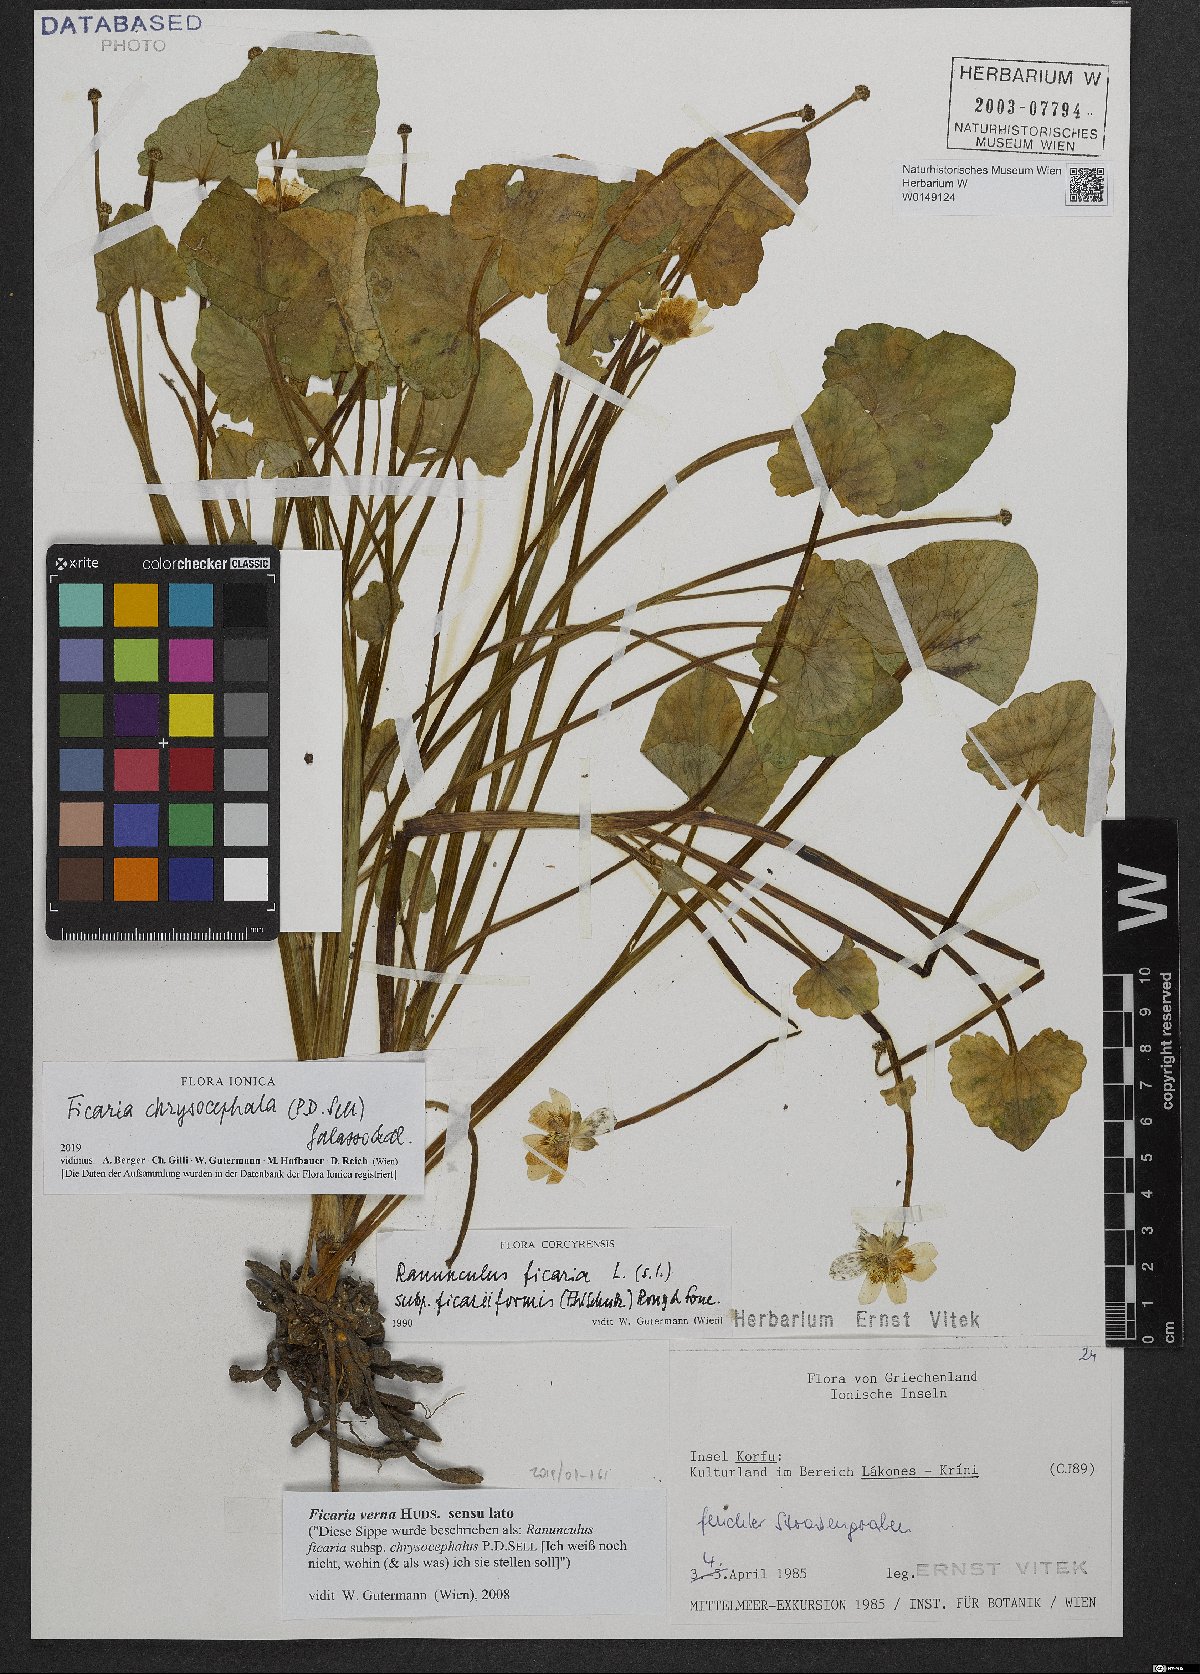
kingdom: Plantae
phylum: Tracheophyta
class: Magnoliopsida
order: Ranunculales
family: Ranunculaceae
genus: Ficaria
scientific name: Ficaria chrysocephala
